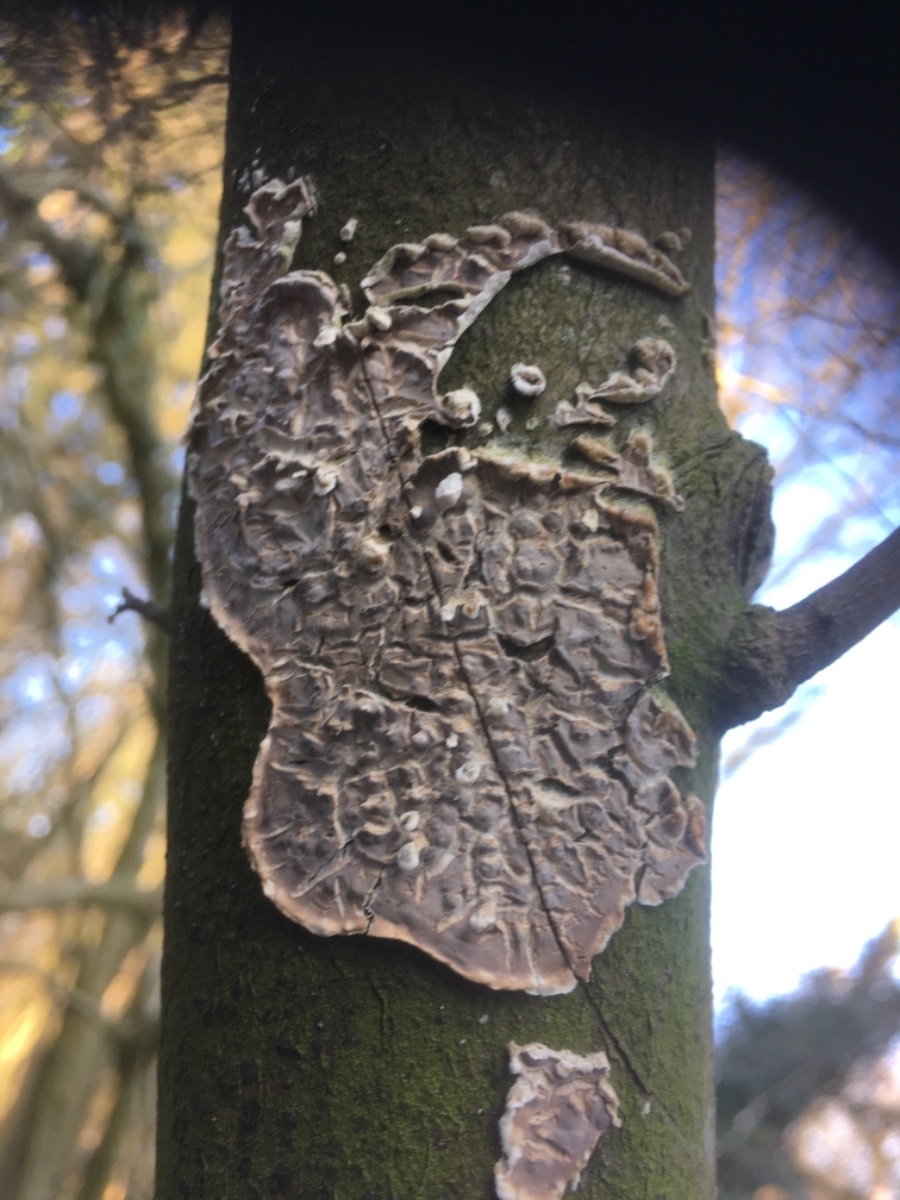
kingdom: Fungi
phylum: Basidiomycota
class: Agaricomycetes
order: Agaricales
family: Physalacriaceae
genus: Cylindrobasidium
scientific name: Cylindrobasidium evolvens
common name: sprækkehinde
